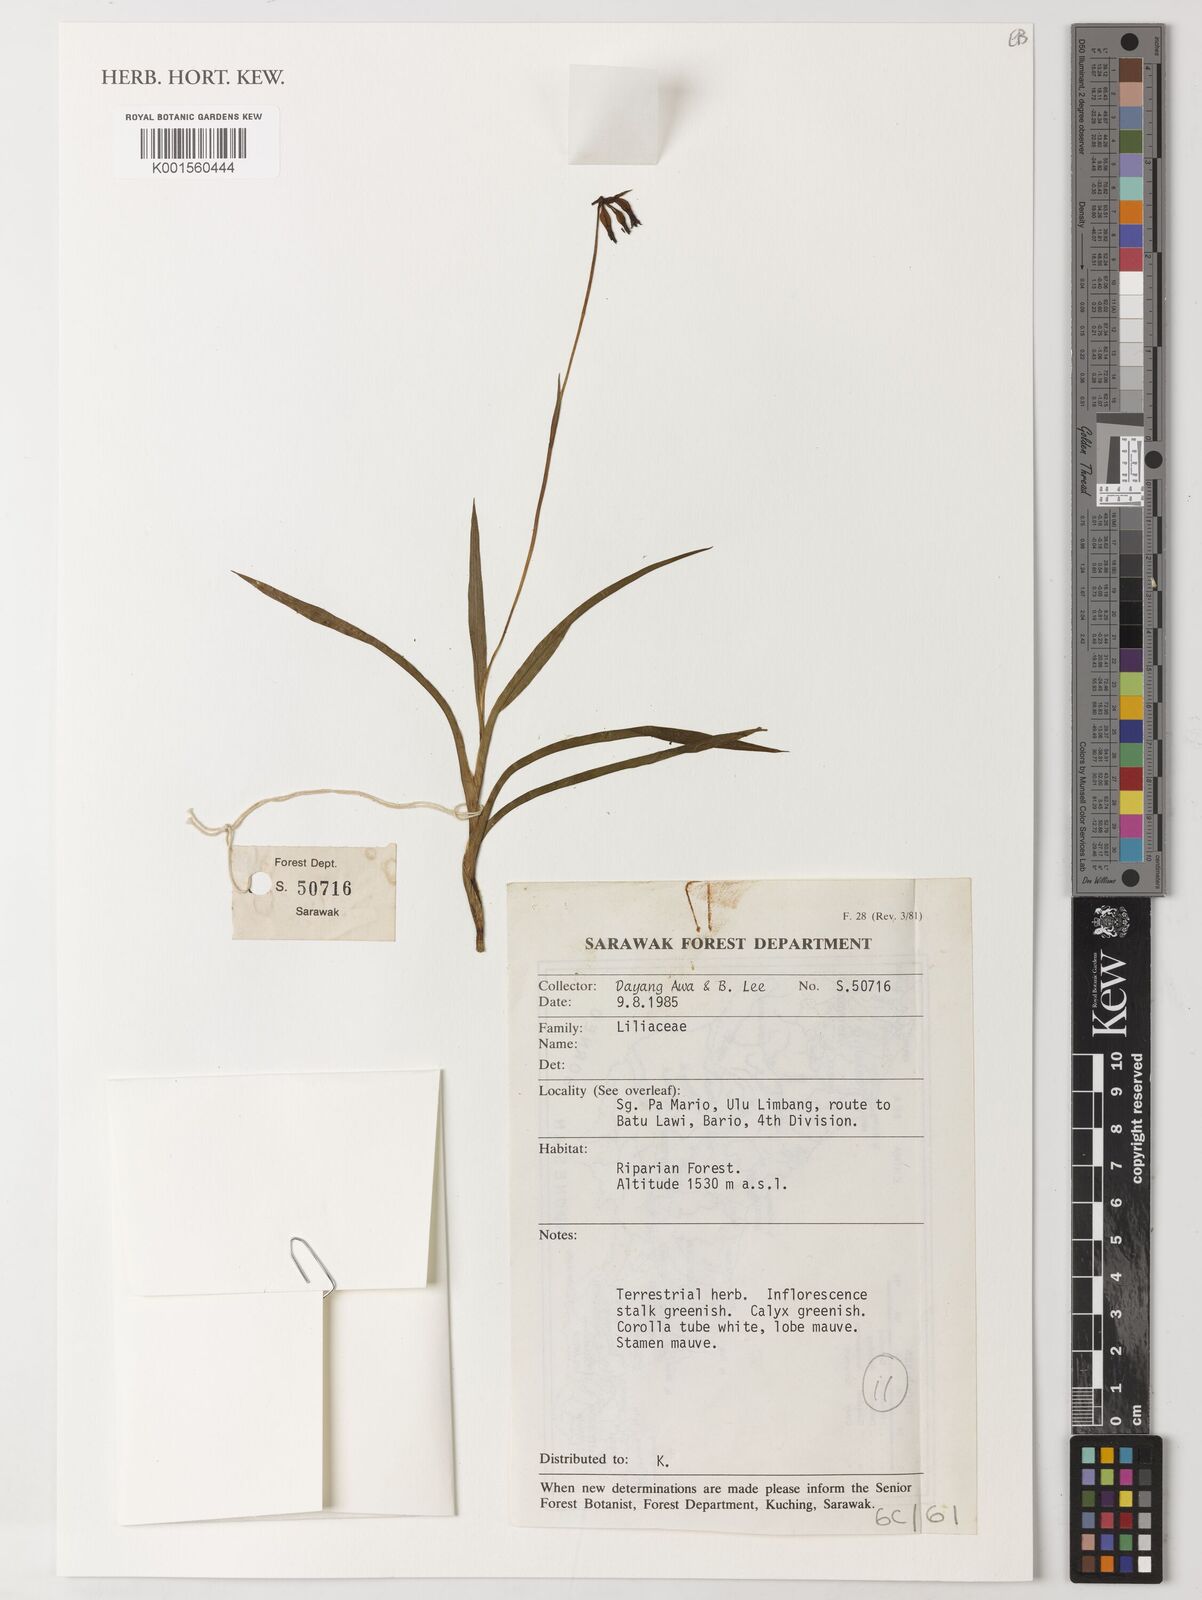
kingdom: Plantae
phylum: Tracheophyta
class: Liliopsida
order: Liliales
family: Liliaceae
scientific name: Liliaceae
